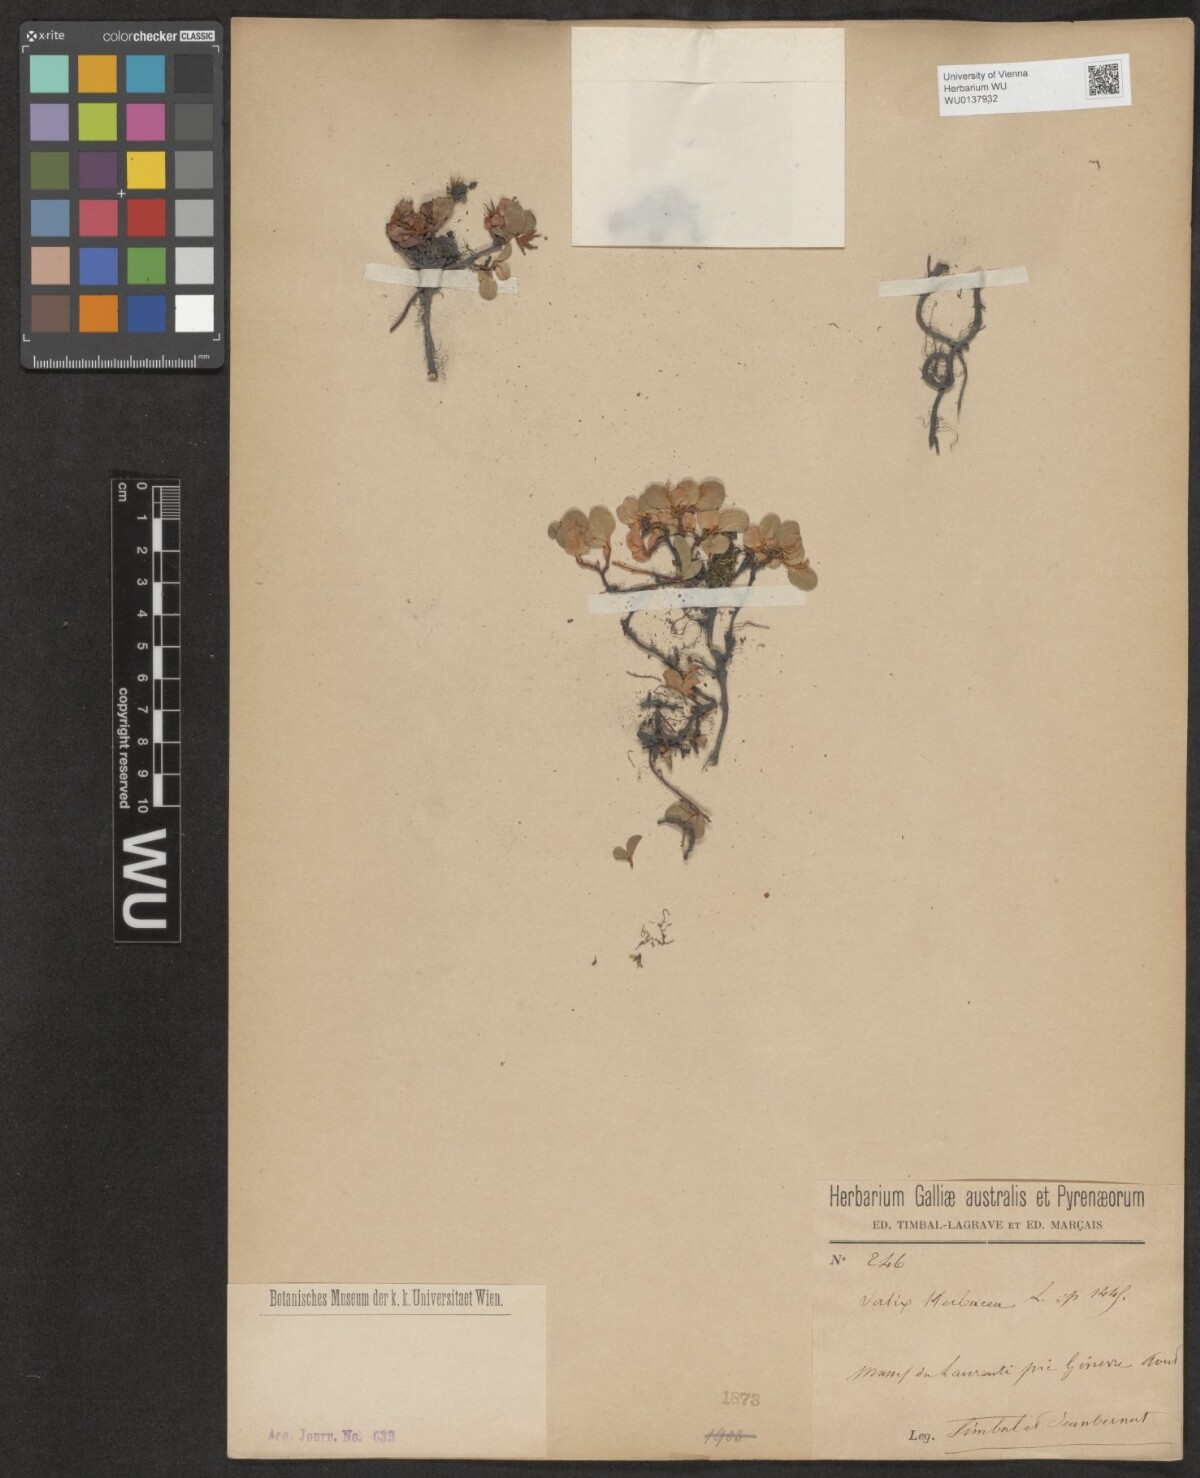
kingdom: Plantae
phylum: Tracheophyta
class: Magnoliopsida
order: Malpighiales
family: Salicaceae
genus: Salix
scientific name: Salix herbacea
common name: Dwarf willow
